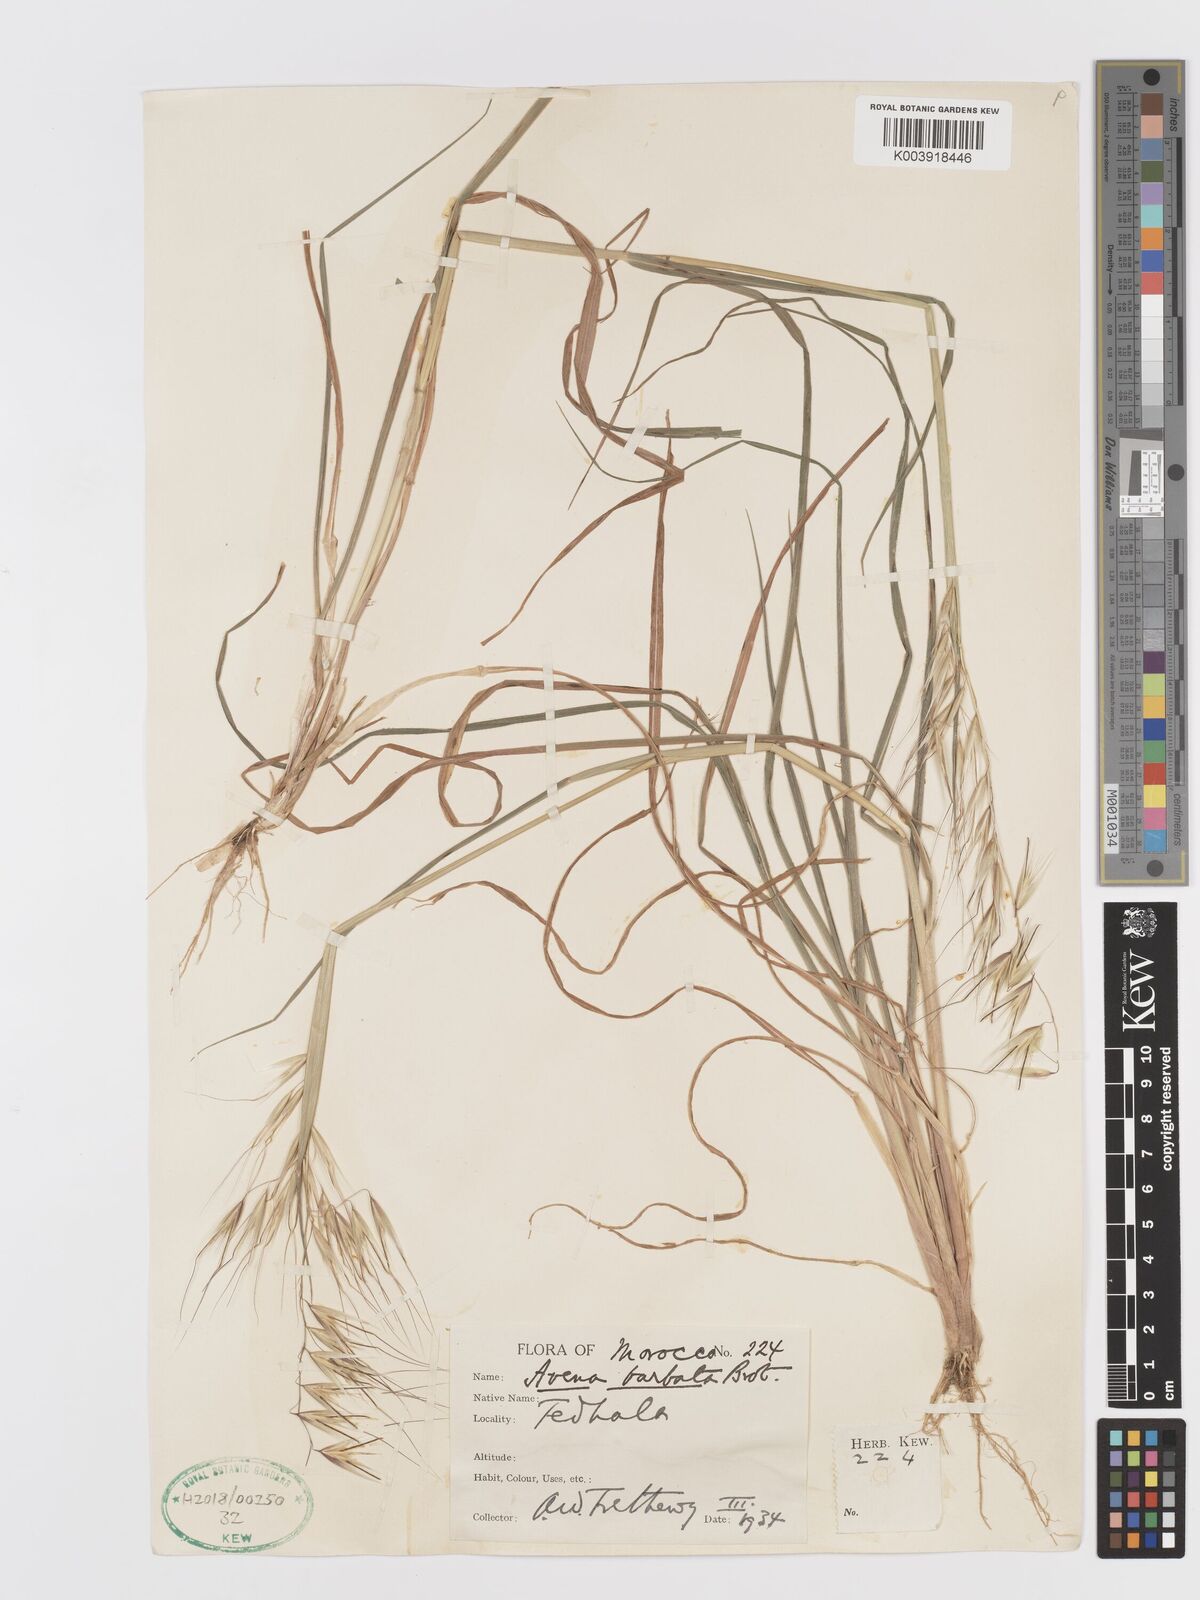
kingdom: Plantae
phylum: Tracheophyta
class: Liliopsida
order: Poales
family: Poaceae
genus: Avena
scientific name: Avena
